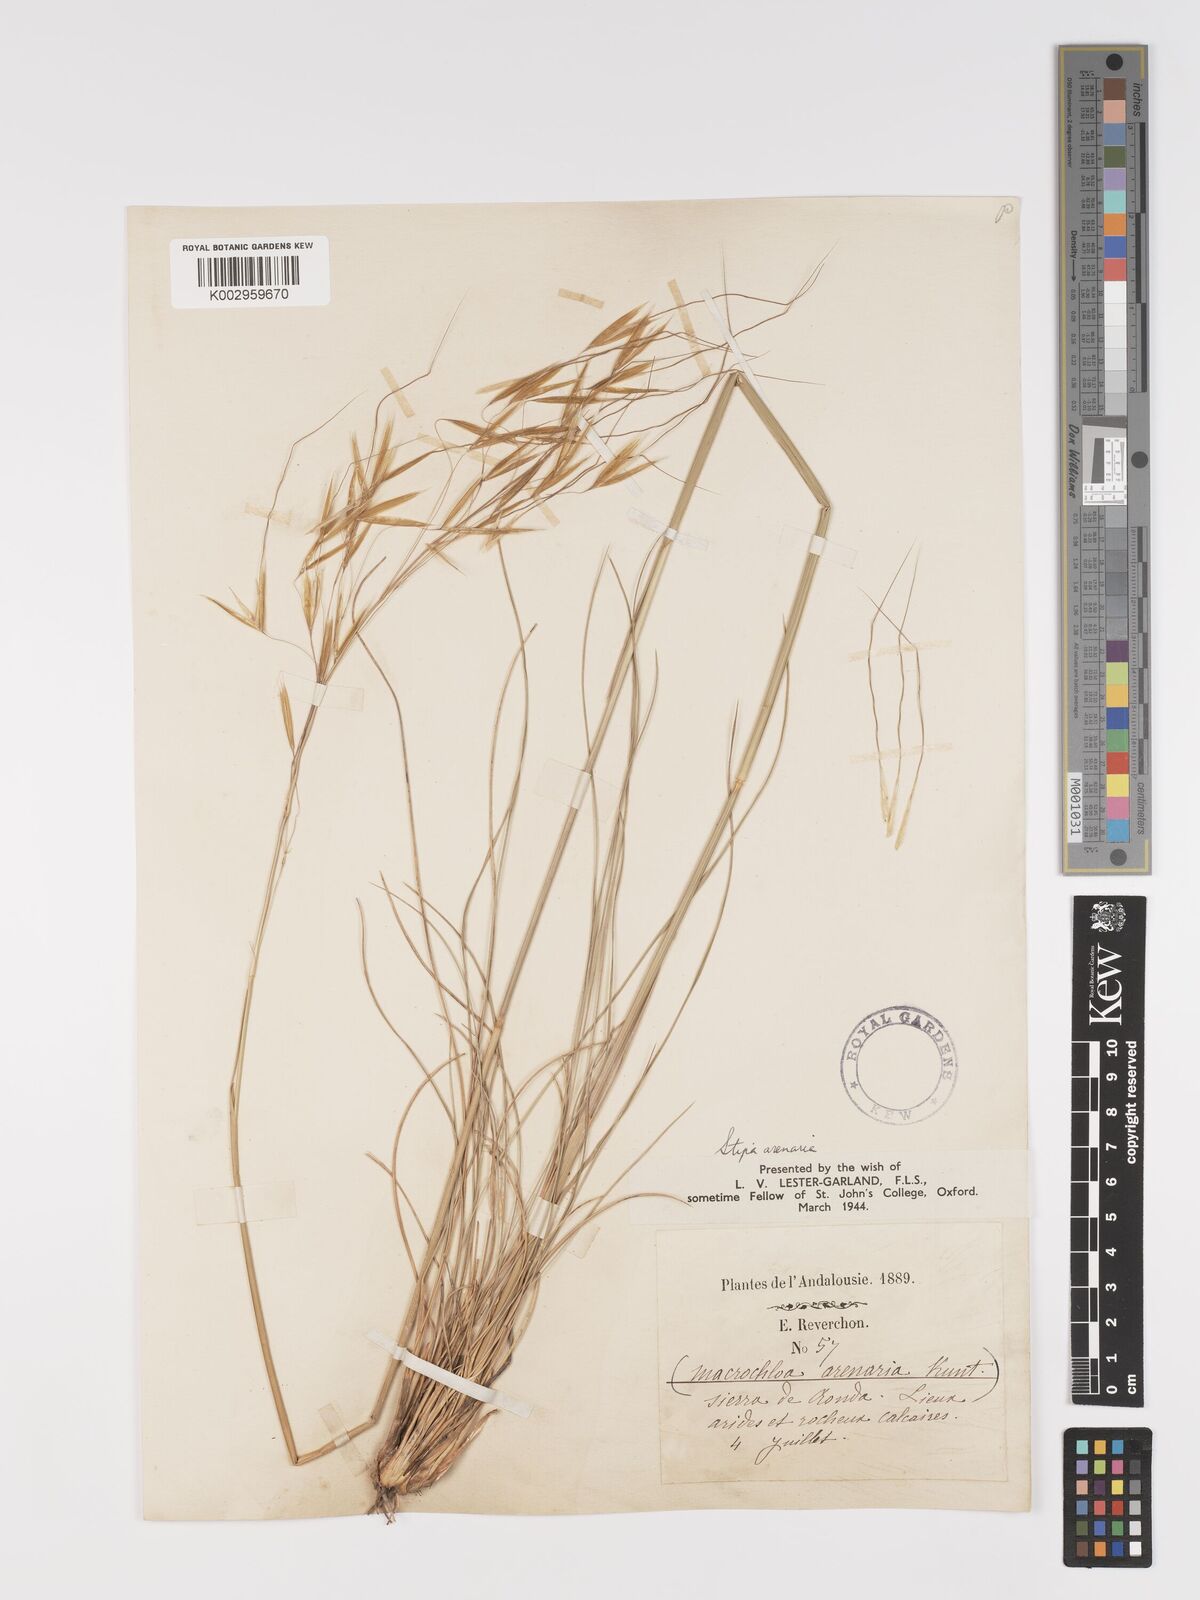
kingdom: Plantae
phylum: Tracheophyta
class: Liliopsida
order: Poales
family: Poaceae
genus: Celtica
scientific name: Celtica gigantea
